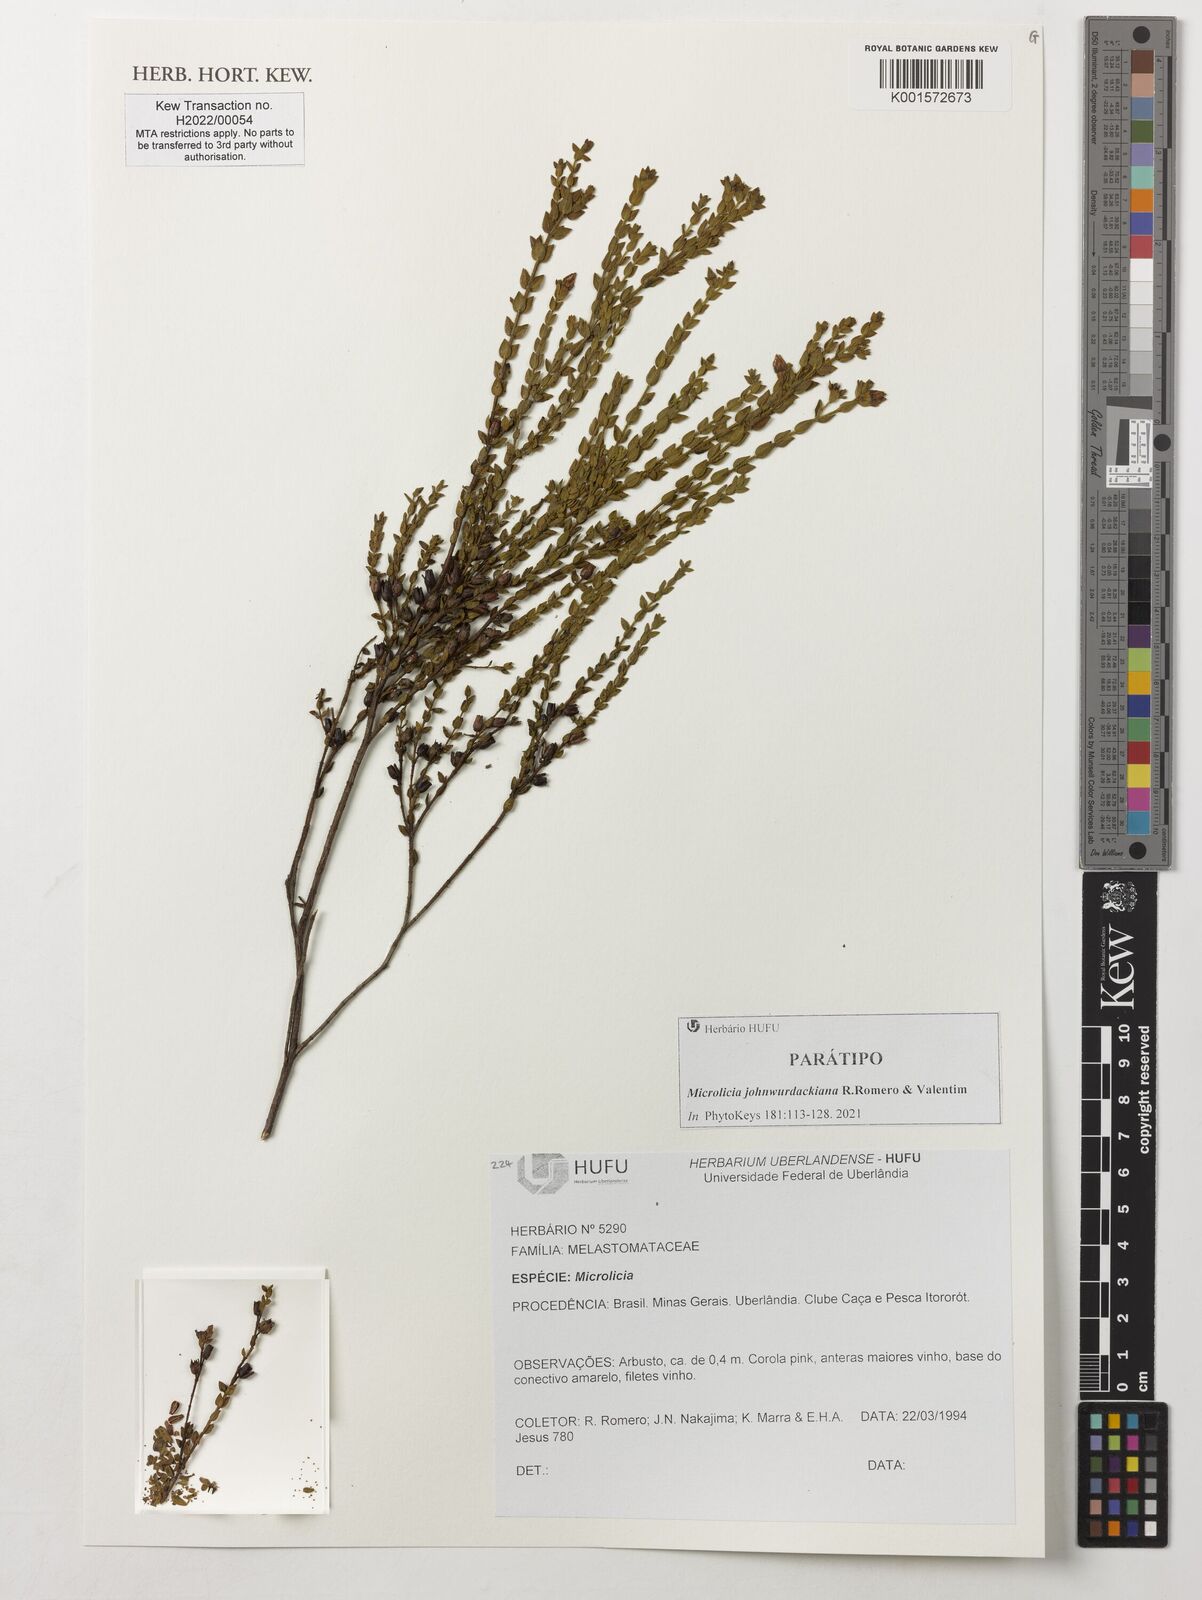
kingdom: Plantae
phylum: Tracheophyta
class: Magnoliopsida
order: Myrtales
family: Melastomataceae
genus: Microlicia
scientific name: Microlicia
